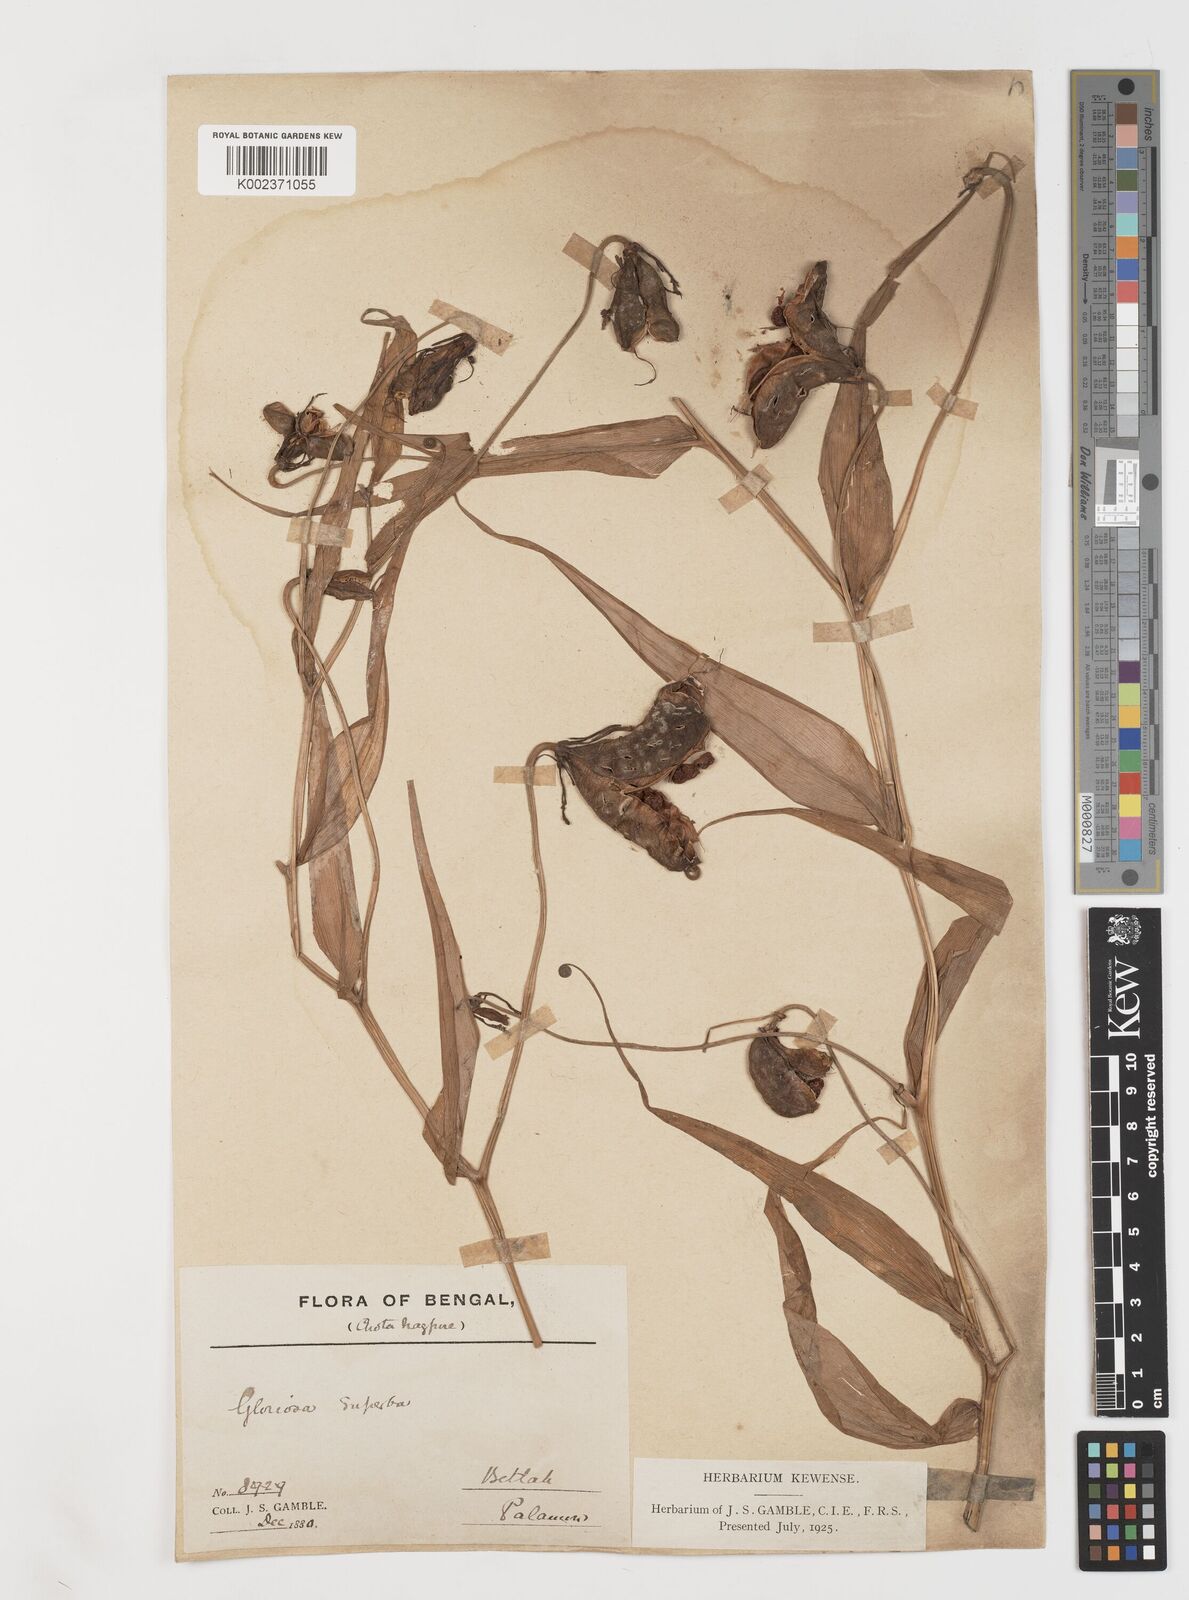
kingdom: Plantae
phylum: Tracheophyta
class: Liliopsida
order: Liliales
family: Colchicaceae
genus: Gloriosa
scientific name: Gloriosa
